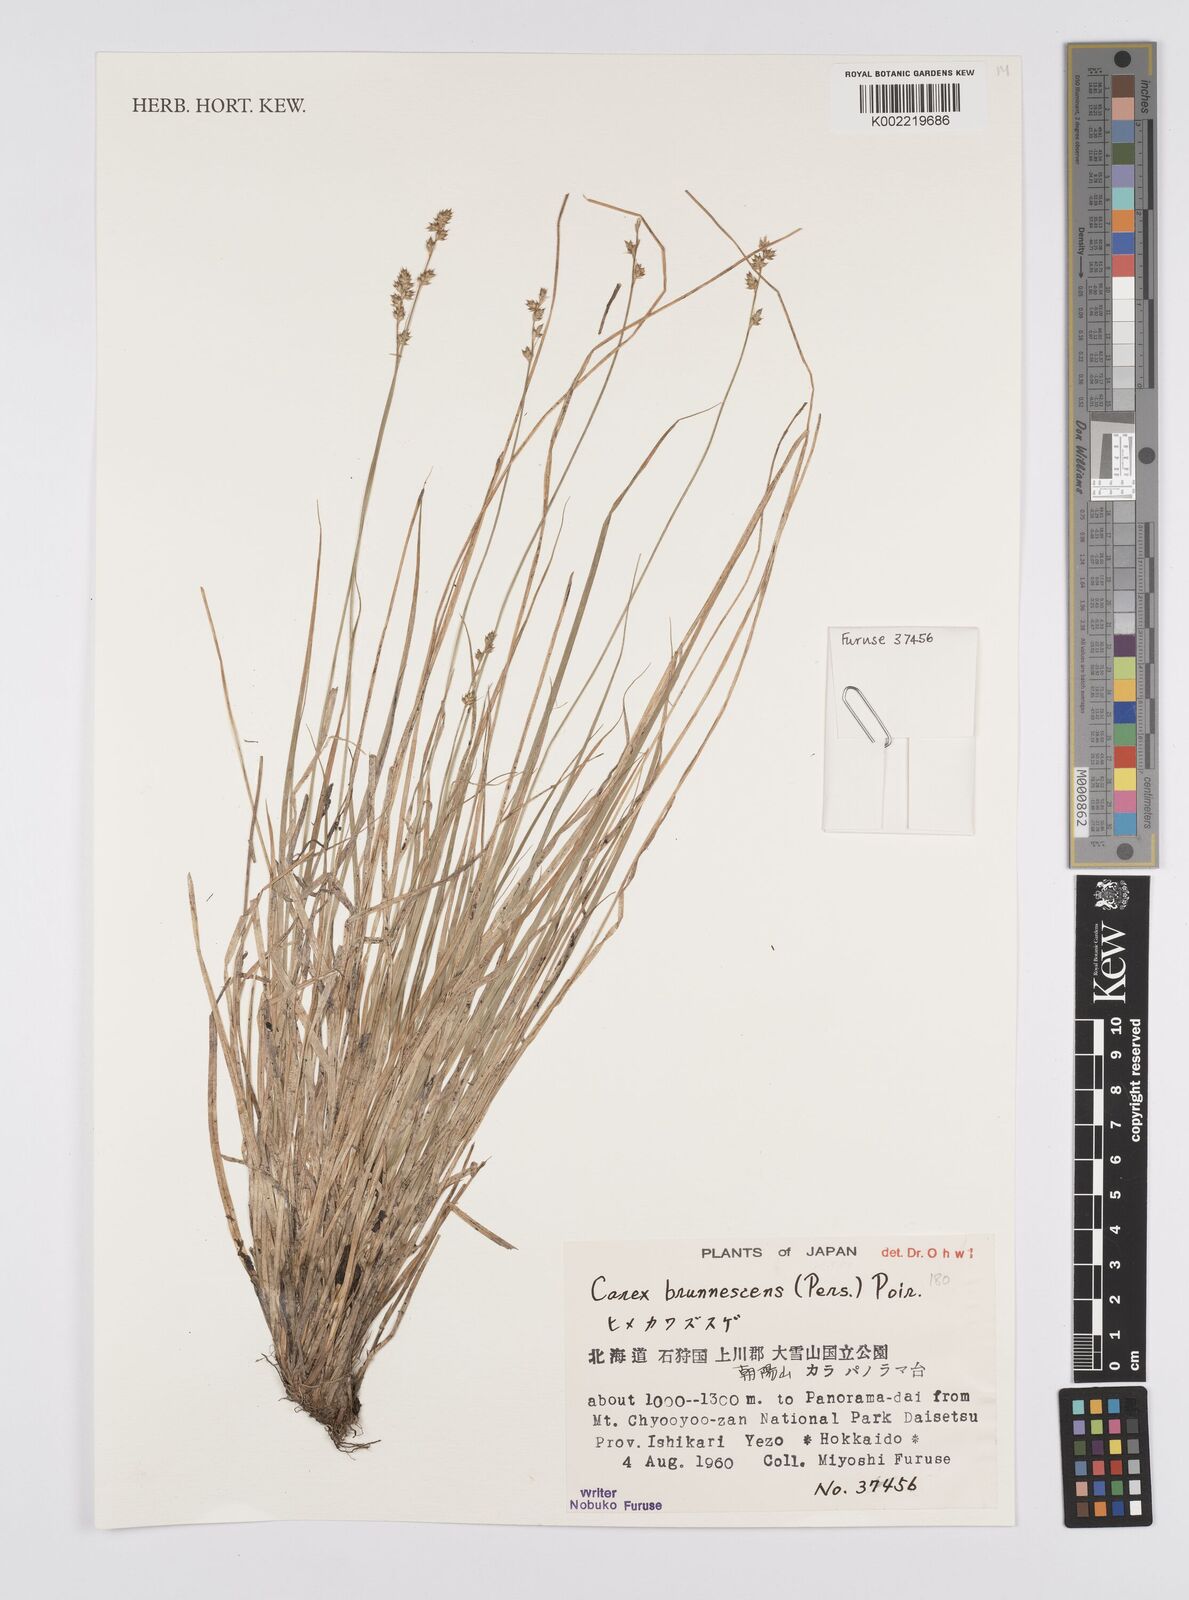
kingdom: Plantae
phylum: Tracheophyta
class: Liliopsida
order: Poales
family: Cyperaceae
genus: Carex
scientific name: Carex brunnescens
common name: Brown sedge
